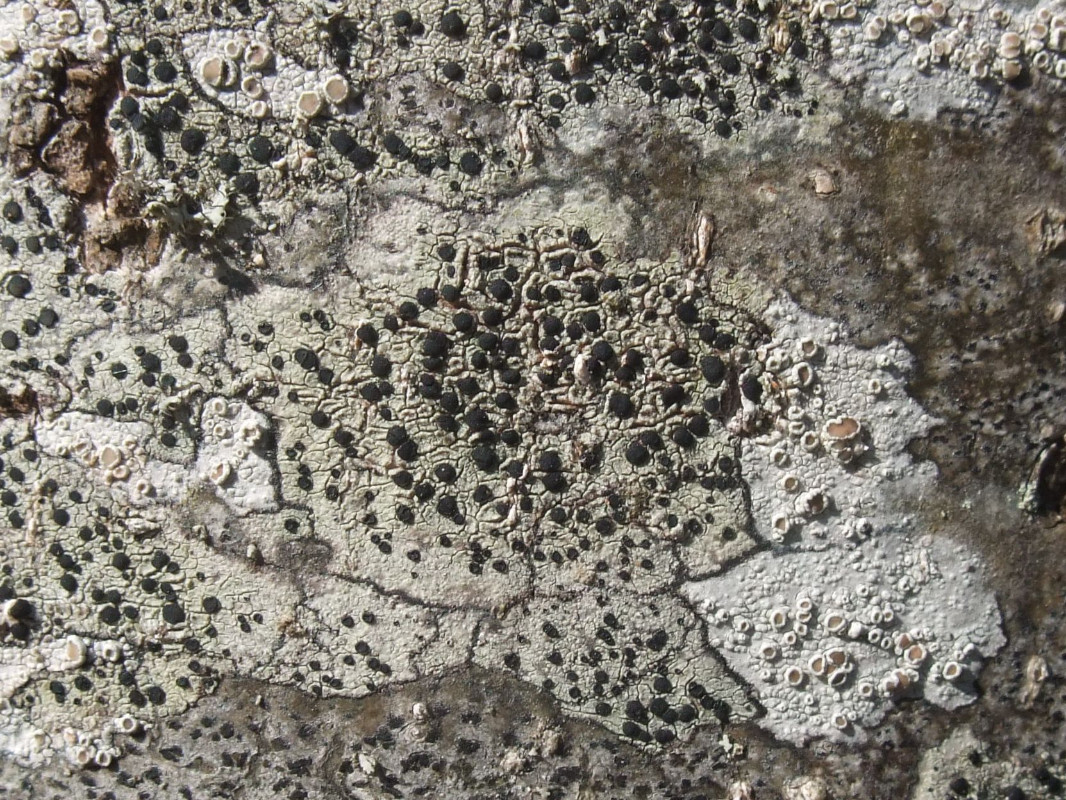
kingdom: Fungi
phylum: Ascomycota
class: Lecanoromycetes
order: Lecanorales
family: Lecanoraceae
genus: Lecidella
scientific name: Lecidella elaeochroma
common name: grågrøn skivelav
